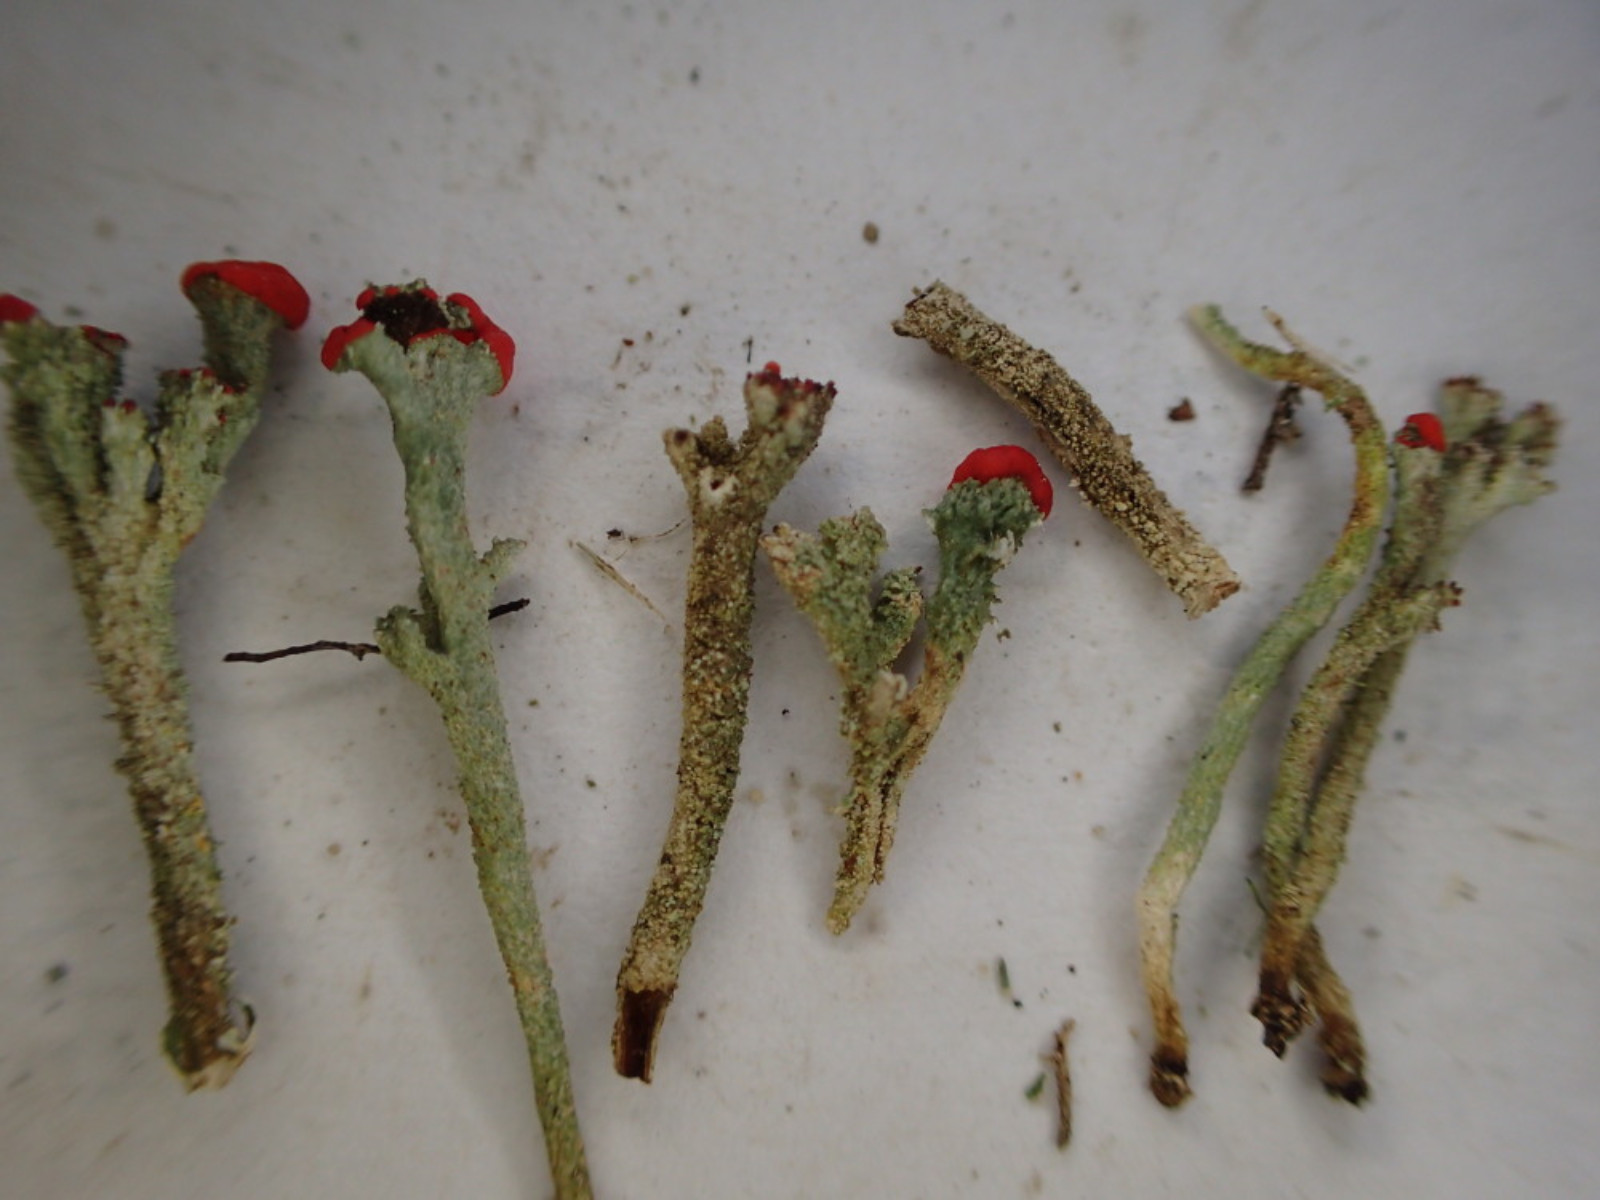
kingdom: Fungi
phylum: Ascomycota
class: Lecanoromycetes
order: Lecanorales
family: Cladoniaceae
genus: Cladonia
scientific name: Cladonia floerkeana
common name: lakrød bægerlav
